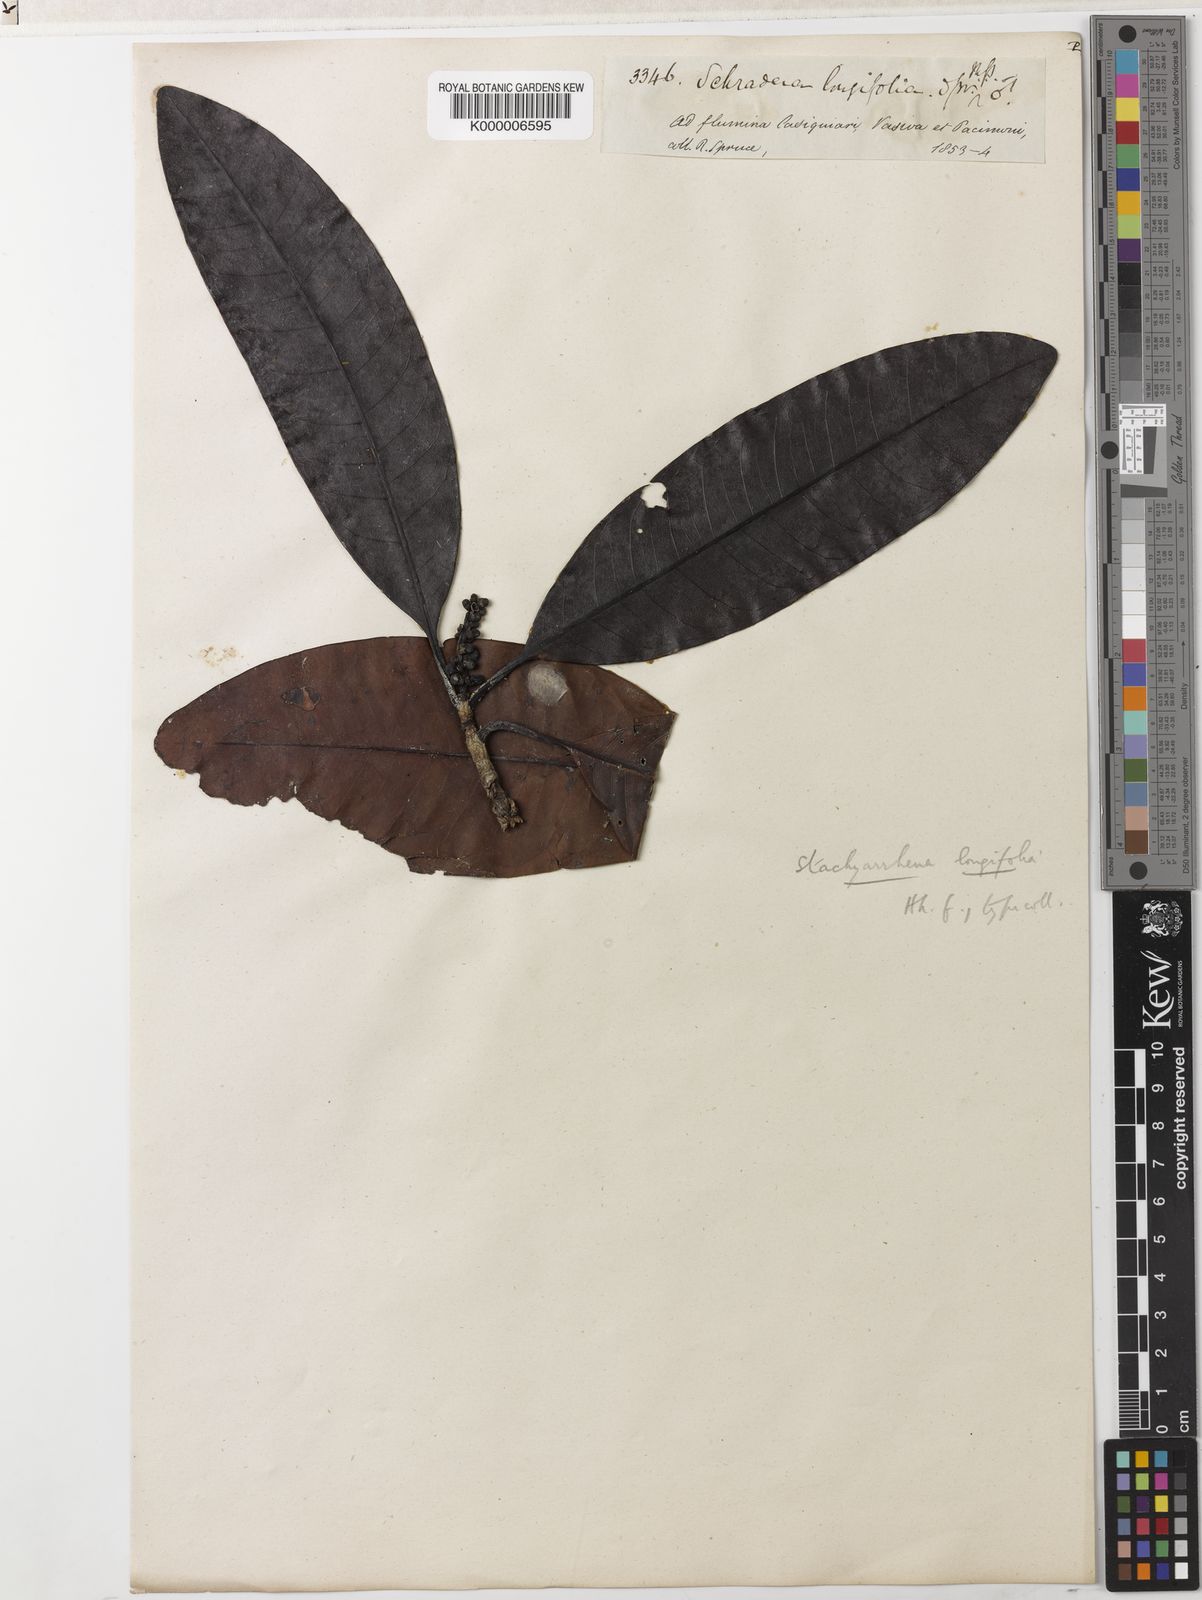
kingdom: Plantae
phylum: Tracheophyta
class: Magnoliopsida
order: Gentianales
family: Rubiaceae
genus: Stachyarrhena
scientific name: Stachyarrhena spicata
